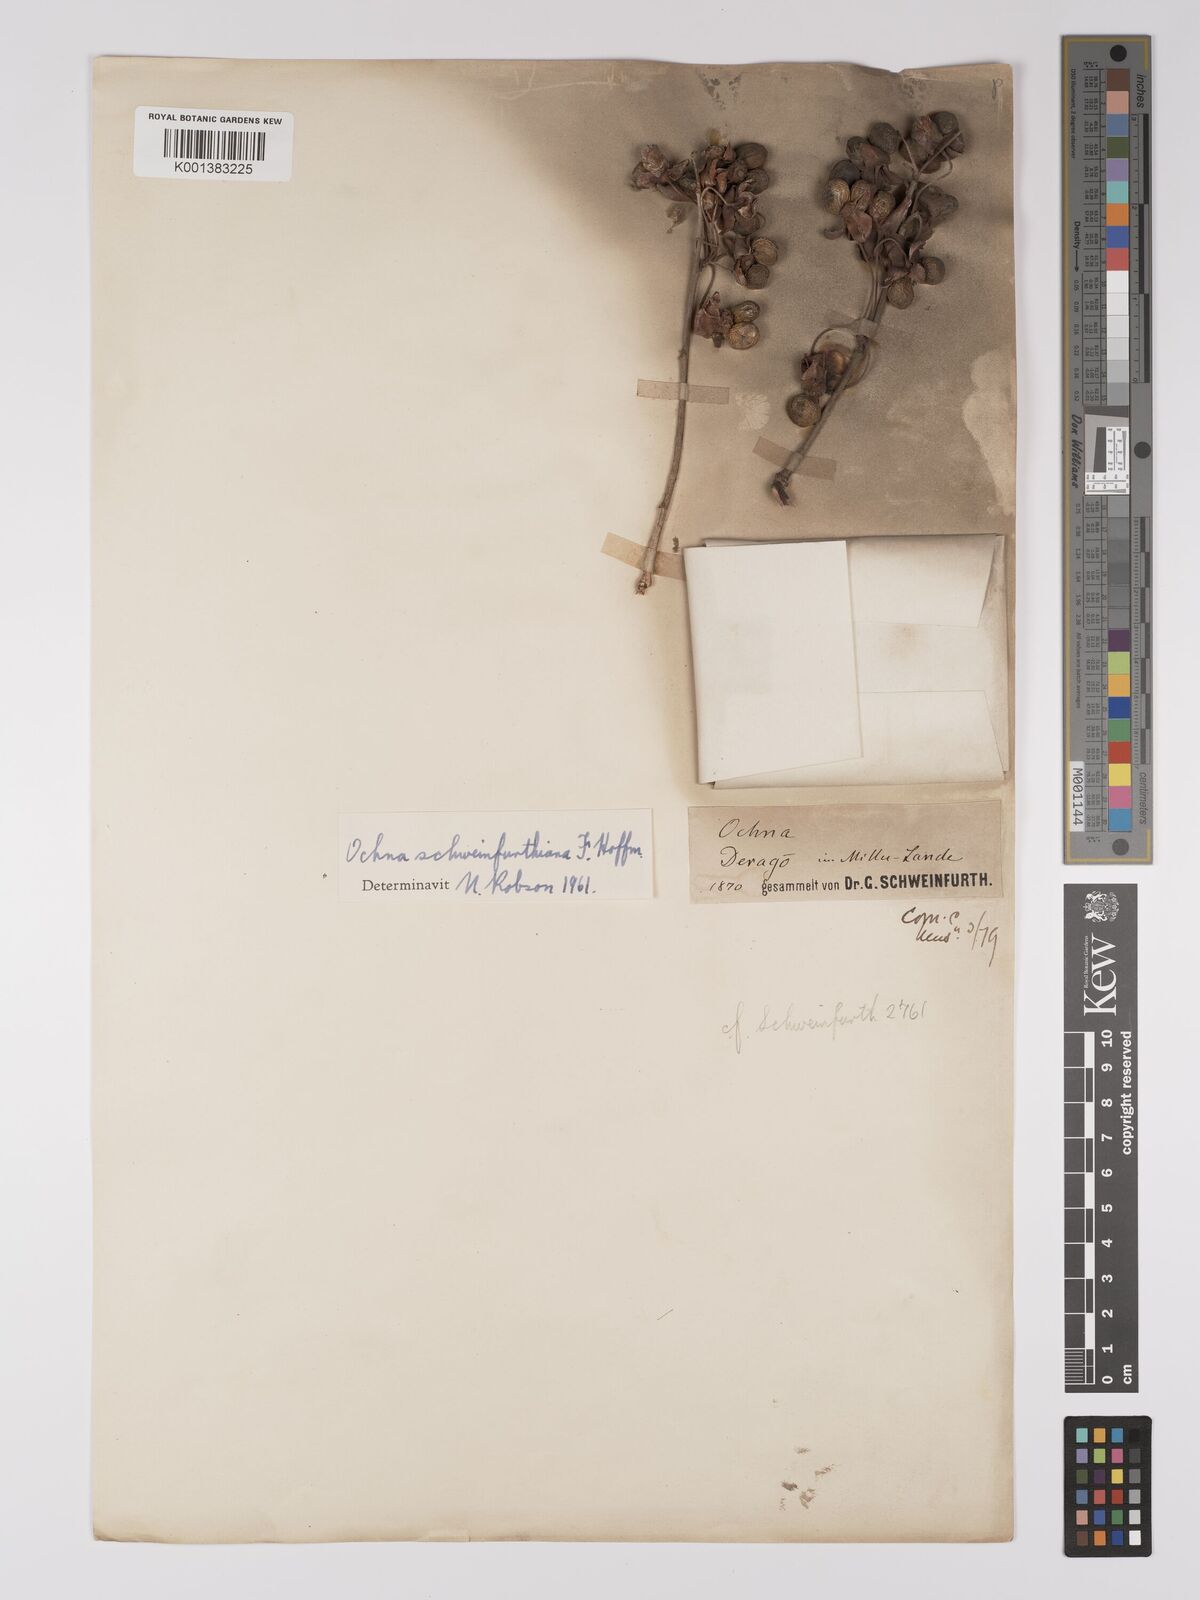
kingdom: Plantae
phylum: Tracheophyta
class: Magnoliopsida
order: Malpighiales
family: Ochnaceae
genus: Ochna
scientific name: Ochna schweinfurthiana
